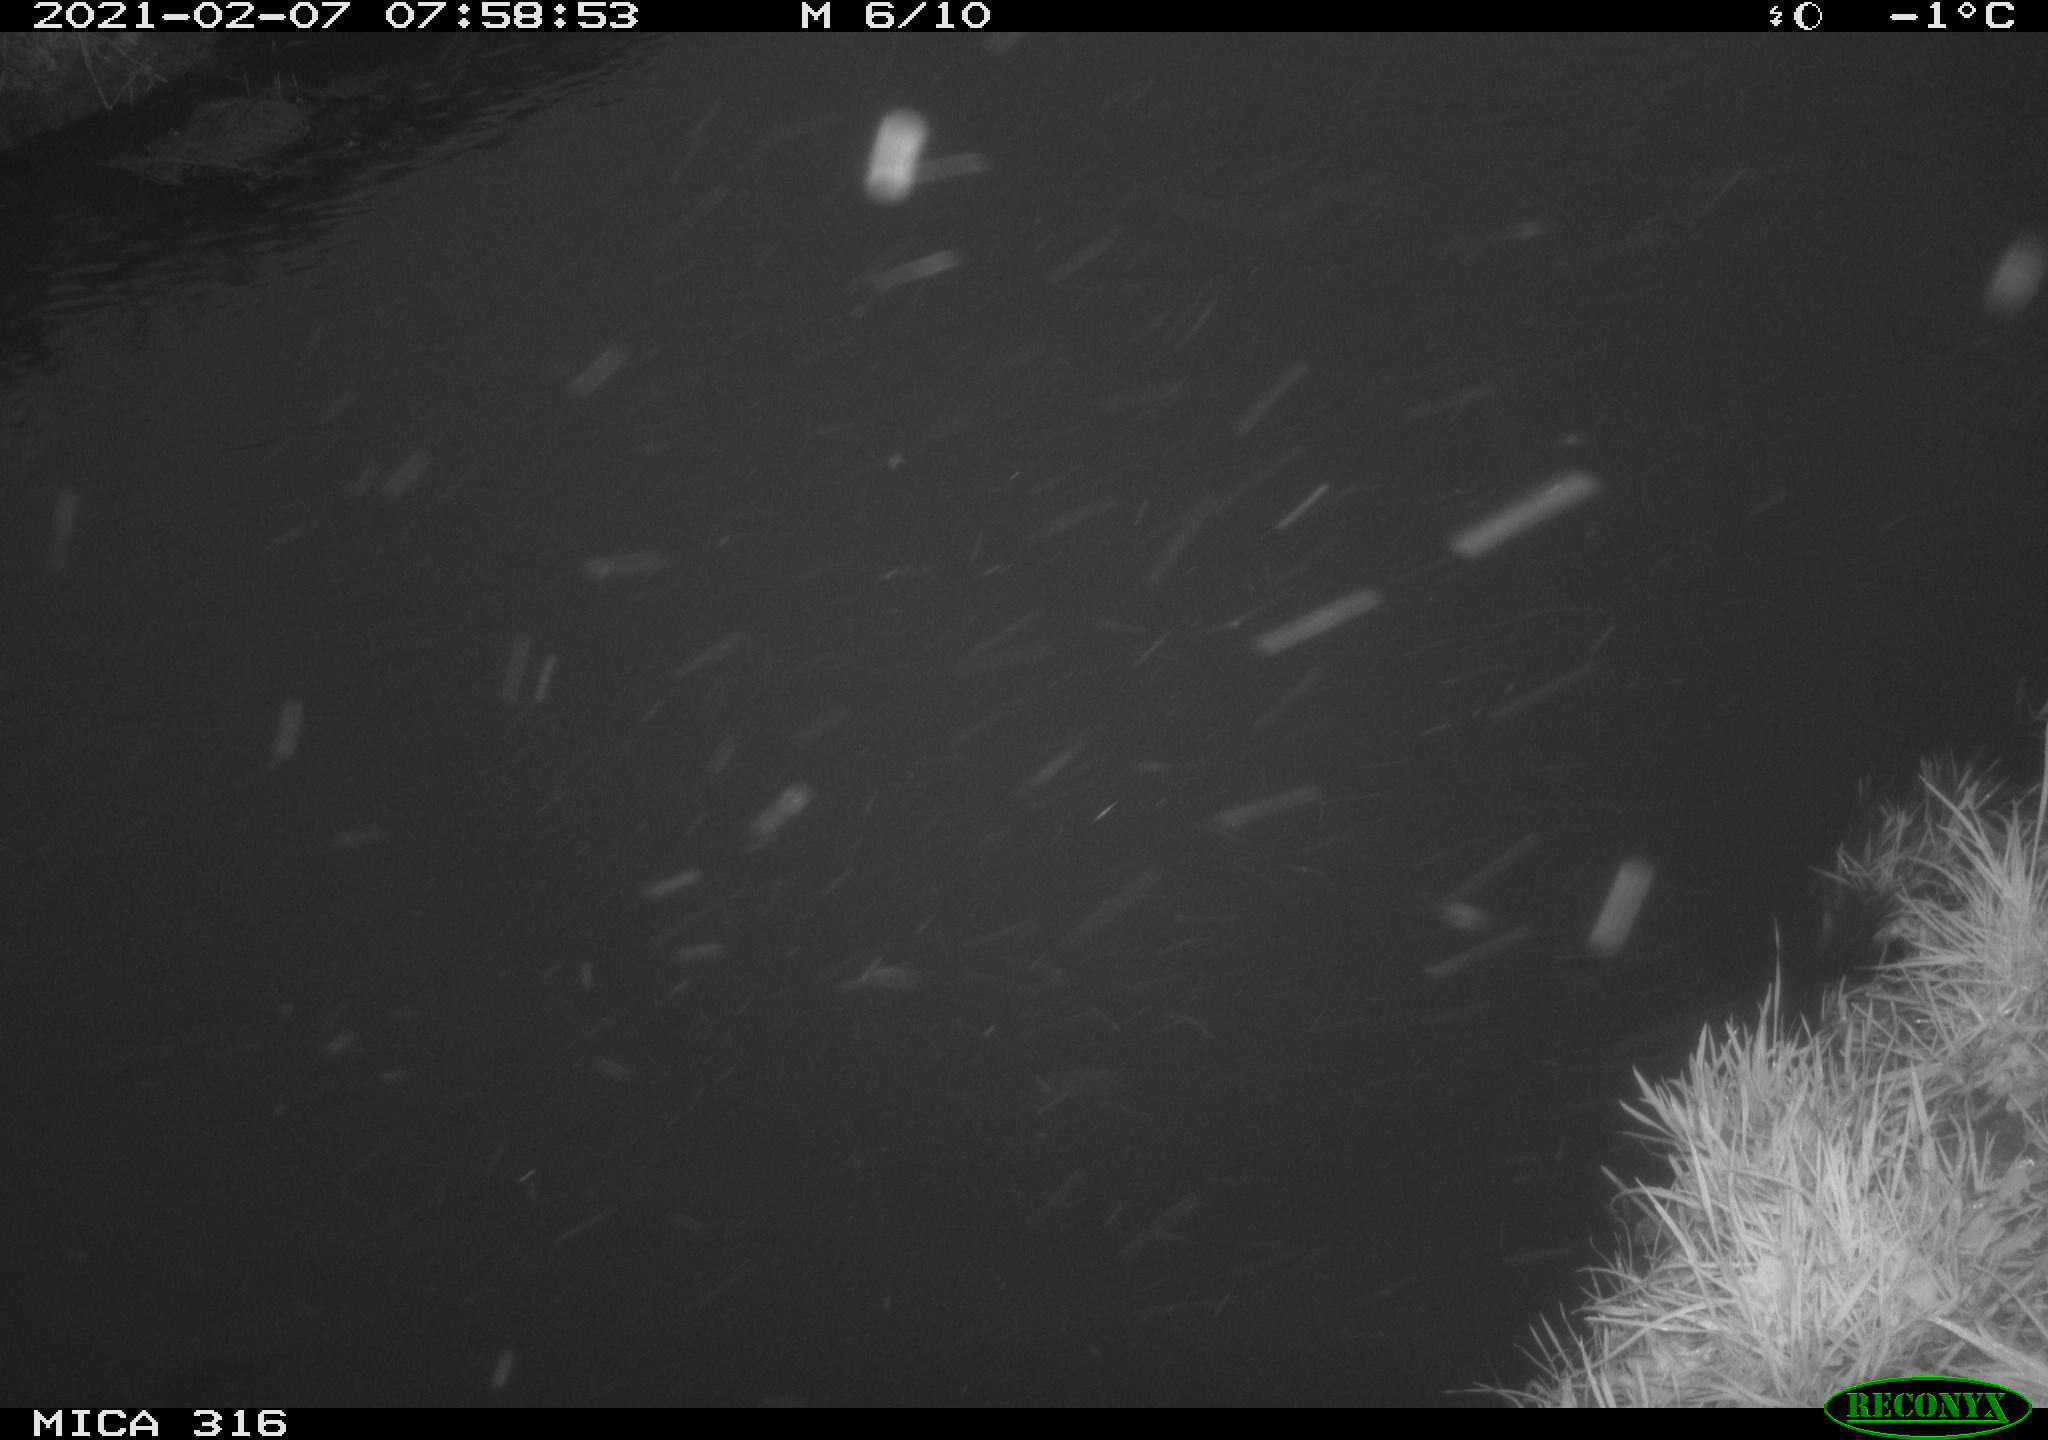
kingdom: Animalia
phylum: Chordata
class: Aves
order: Gruiformes
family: Rallidae
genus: Fulica
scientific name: Fulica atra
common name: Eurasian coot
